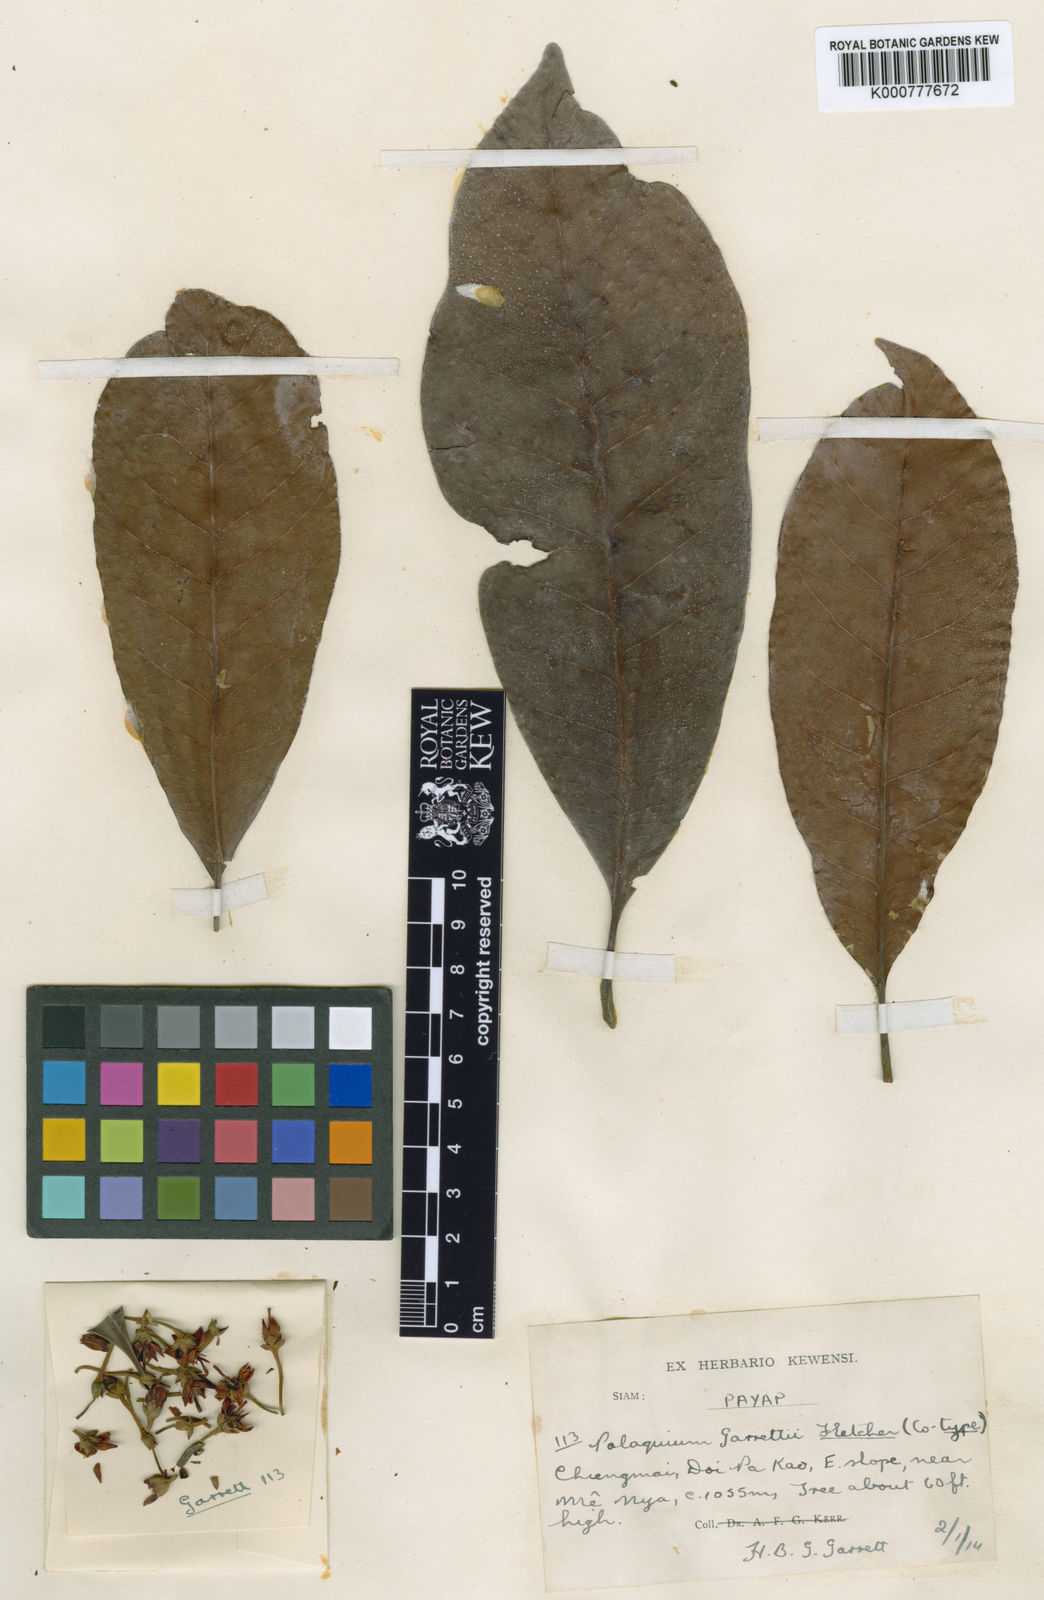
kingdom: Plantae
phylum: Tracheophyta
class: Magnoliopsida
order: Ericales
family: Sapotaceae
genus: Palaquium
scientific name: Palaquium maingayi
